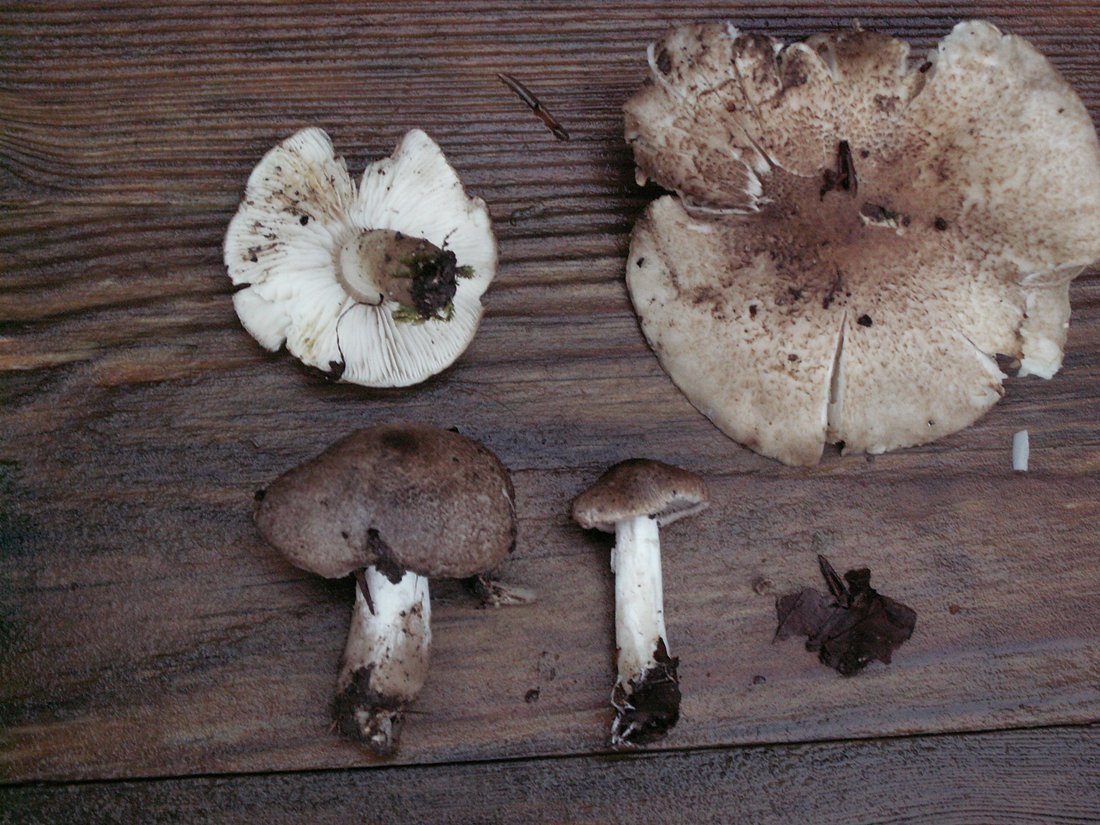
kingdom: Fungi
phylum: Basidiomycota
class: Agaricomycetes
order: Agaricales
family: Tricholomataceae
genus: Tricholoma
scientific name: Tricholoma scalpturatum
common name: gulplettet ridderhat
